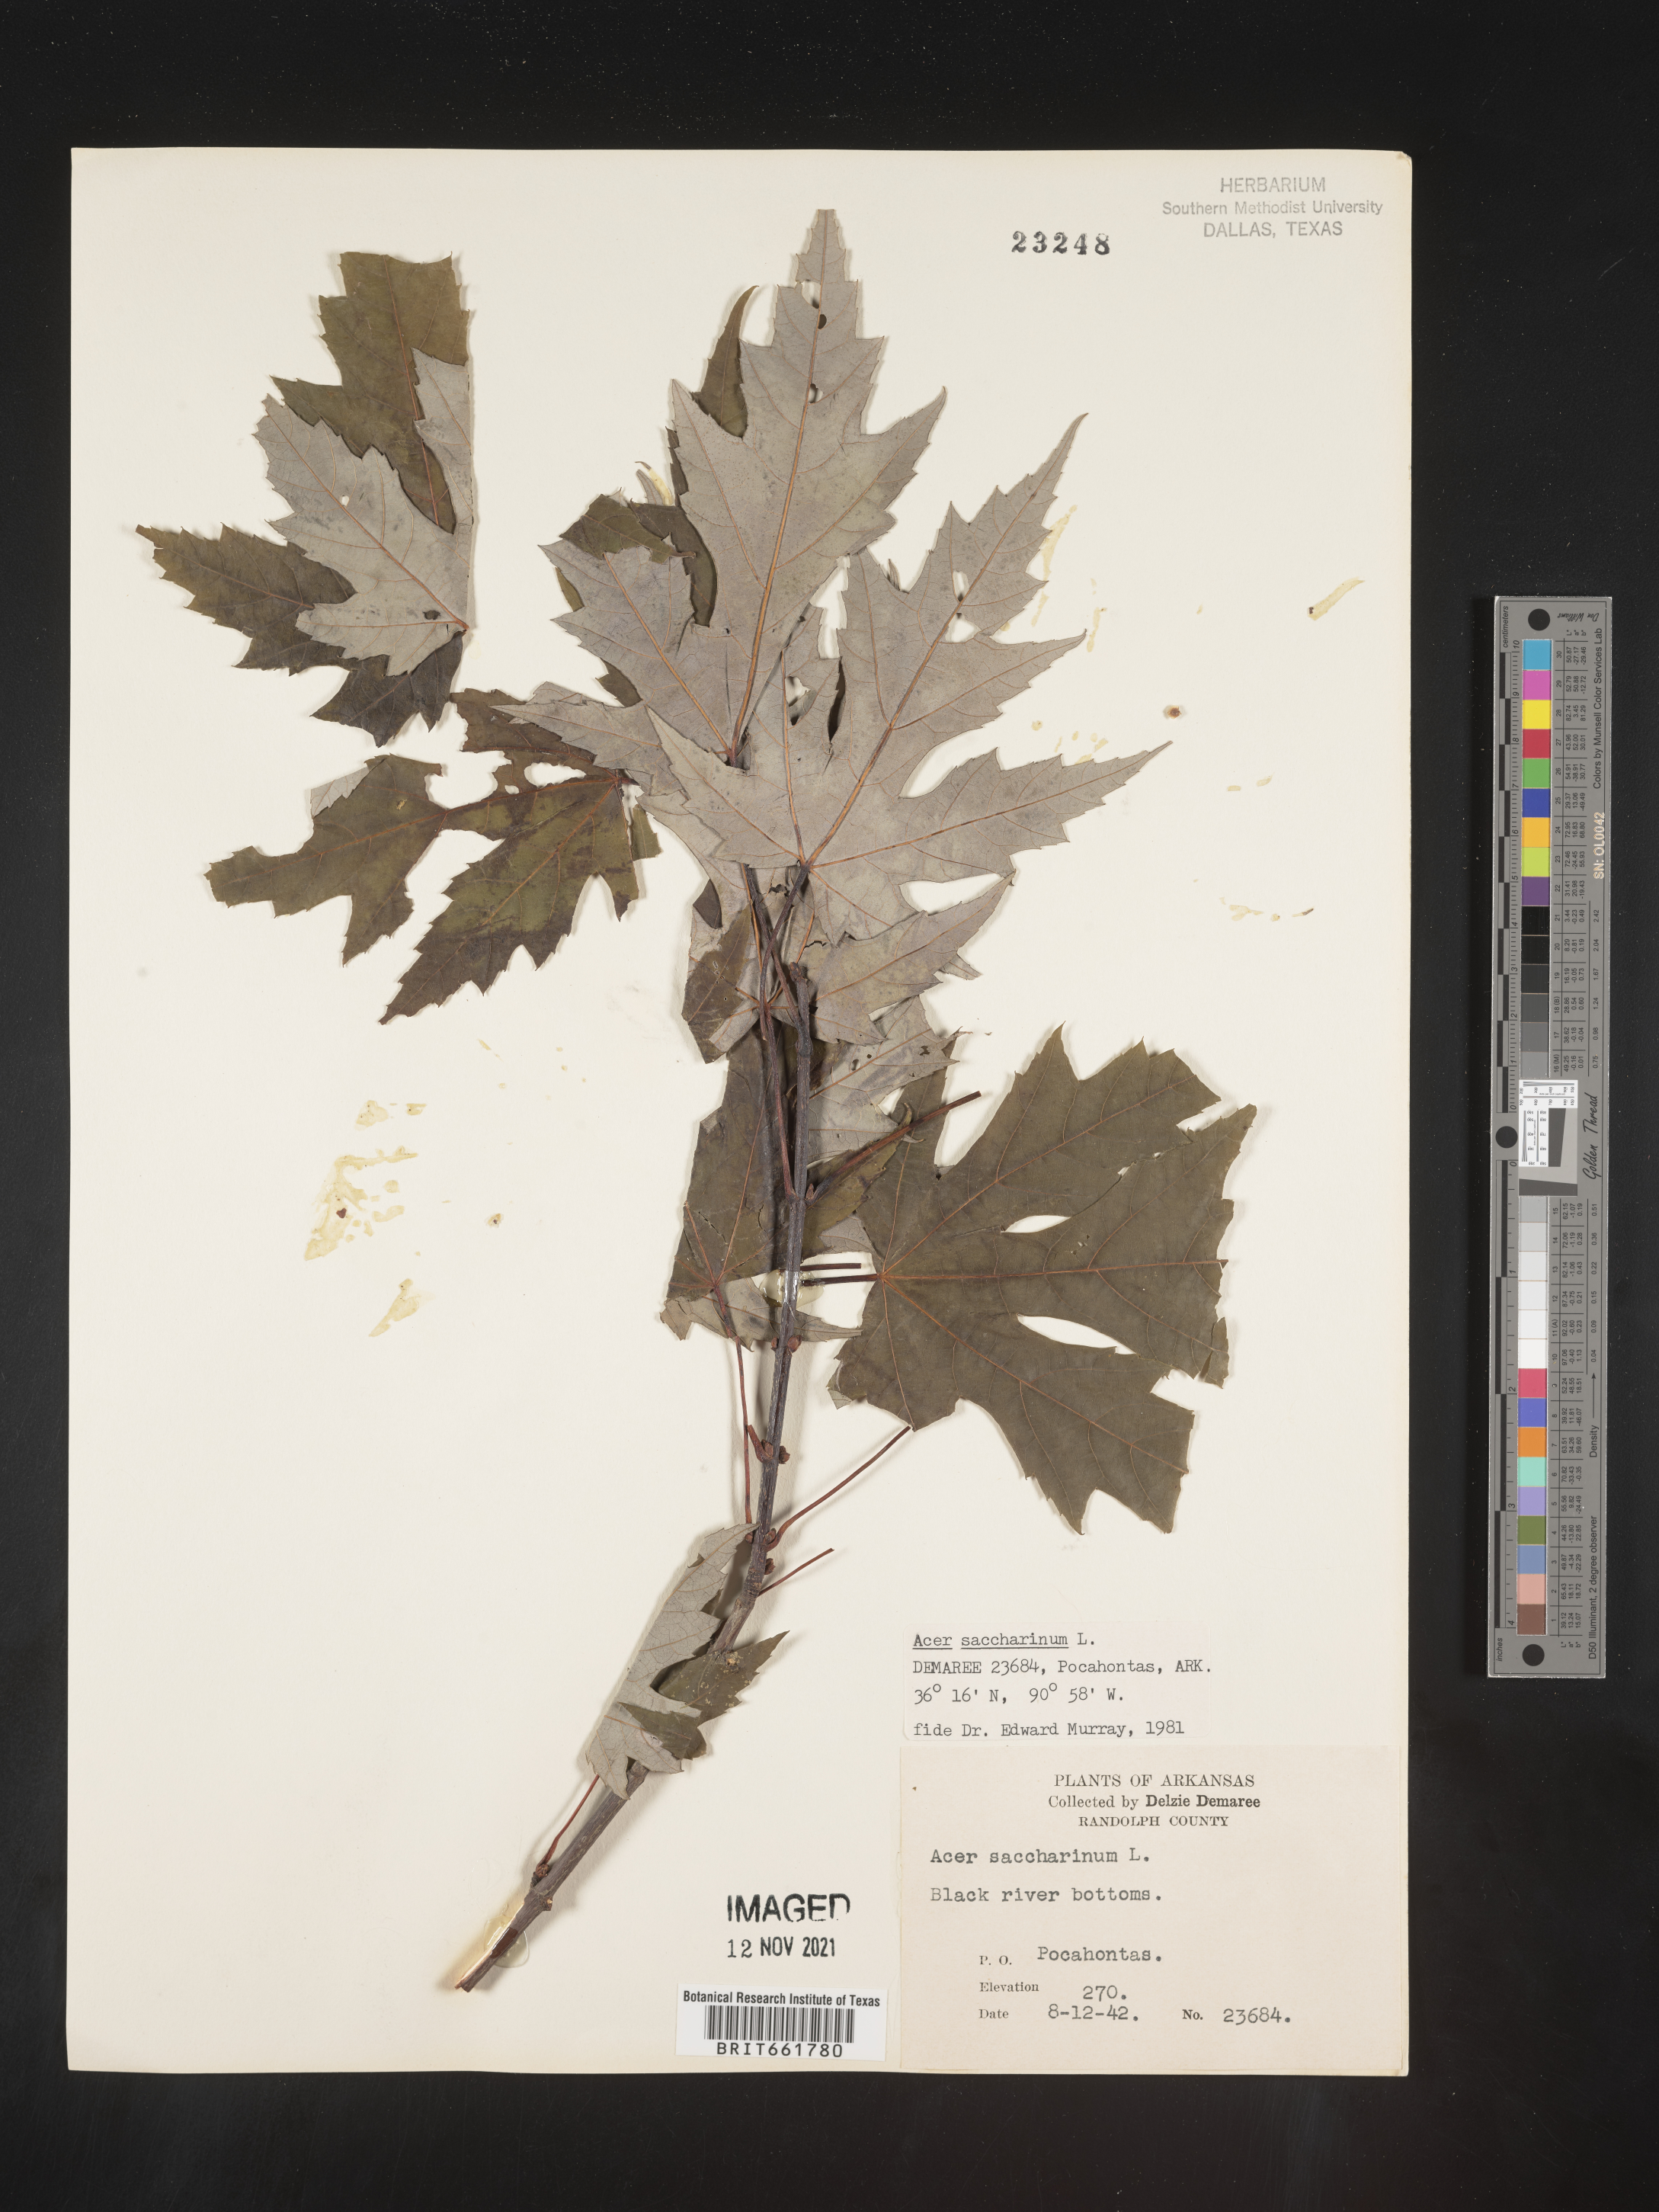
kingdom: Plantae
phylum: Tracheophyta
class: Magnoliopsida
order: Sapindales
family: Sapindaceae
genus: Acer
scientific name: Acer saccharinum
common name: Silver maple
